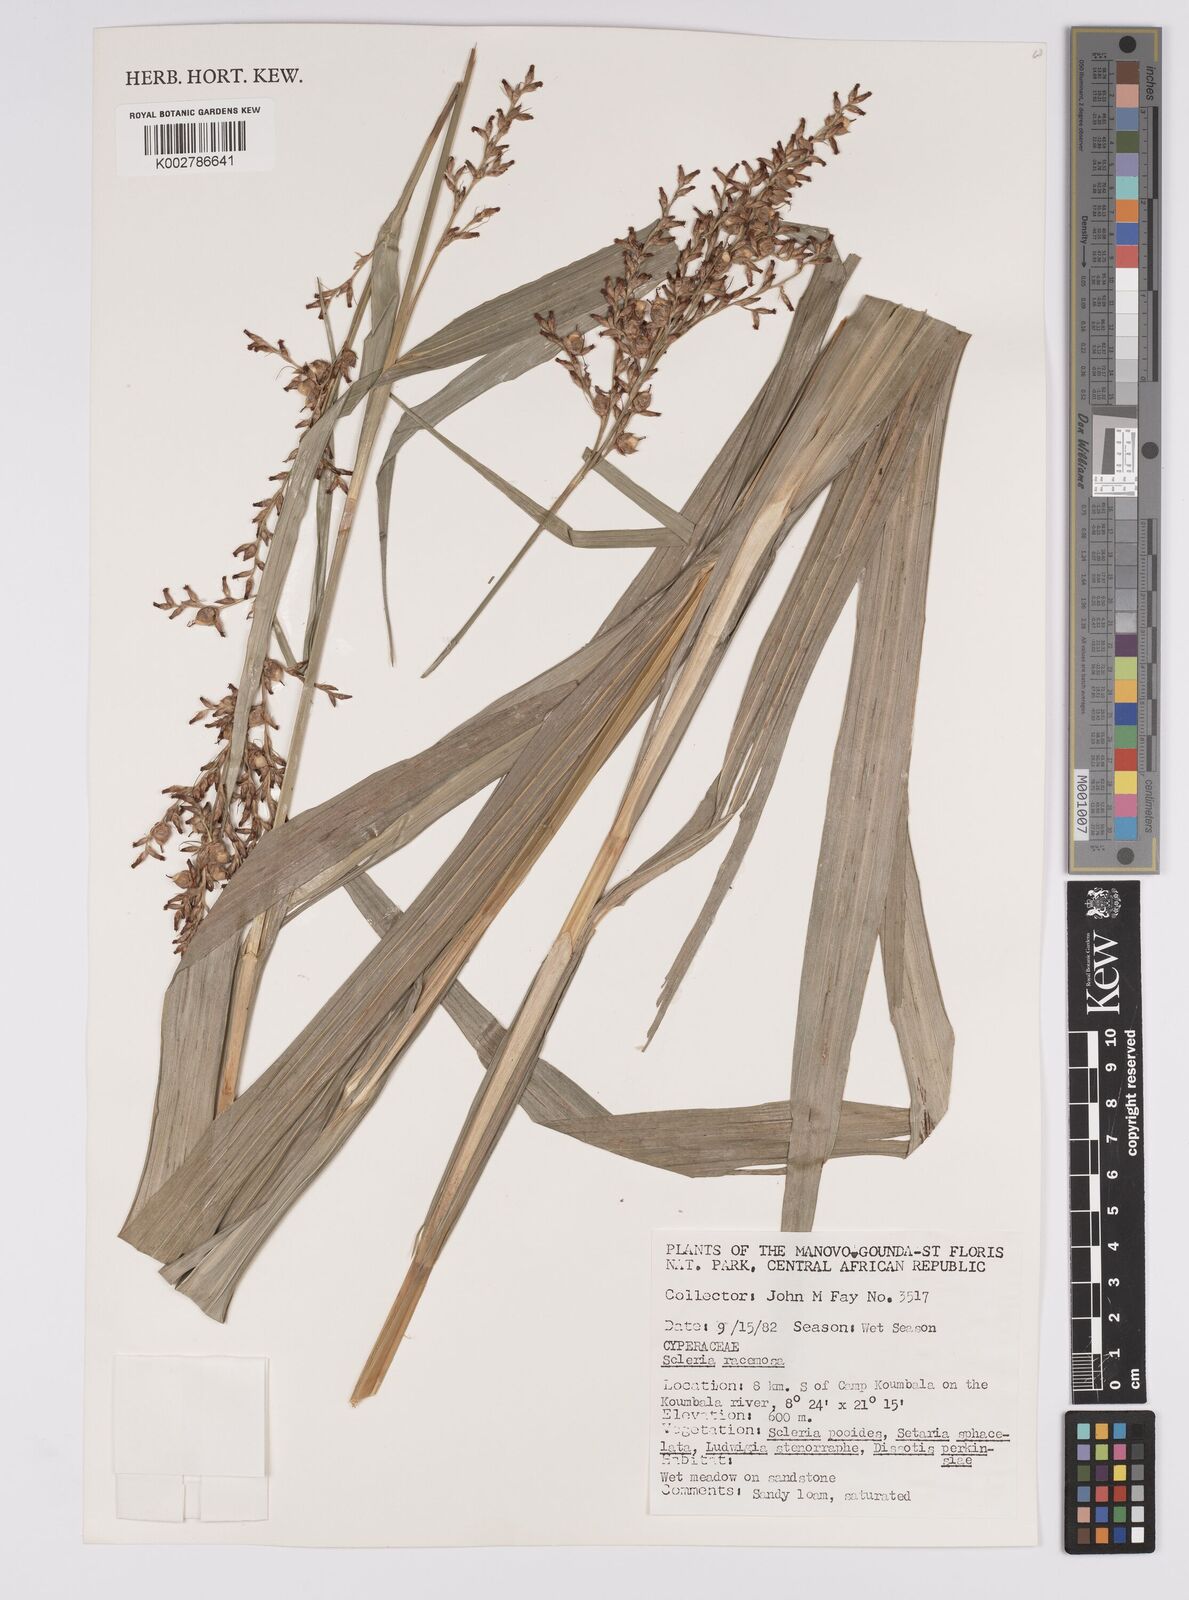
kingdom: Plantae
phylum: Tracheophyta
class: Liliopsida
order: Poales
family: Cyperaceae
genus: Scleria
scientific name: Scleria racemosa
